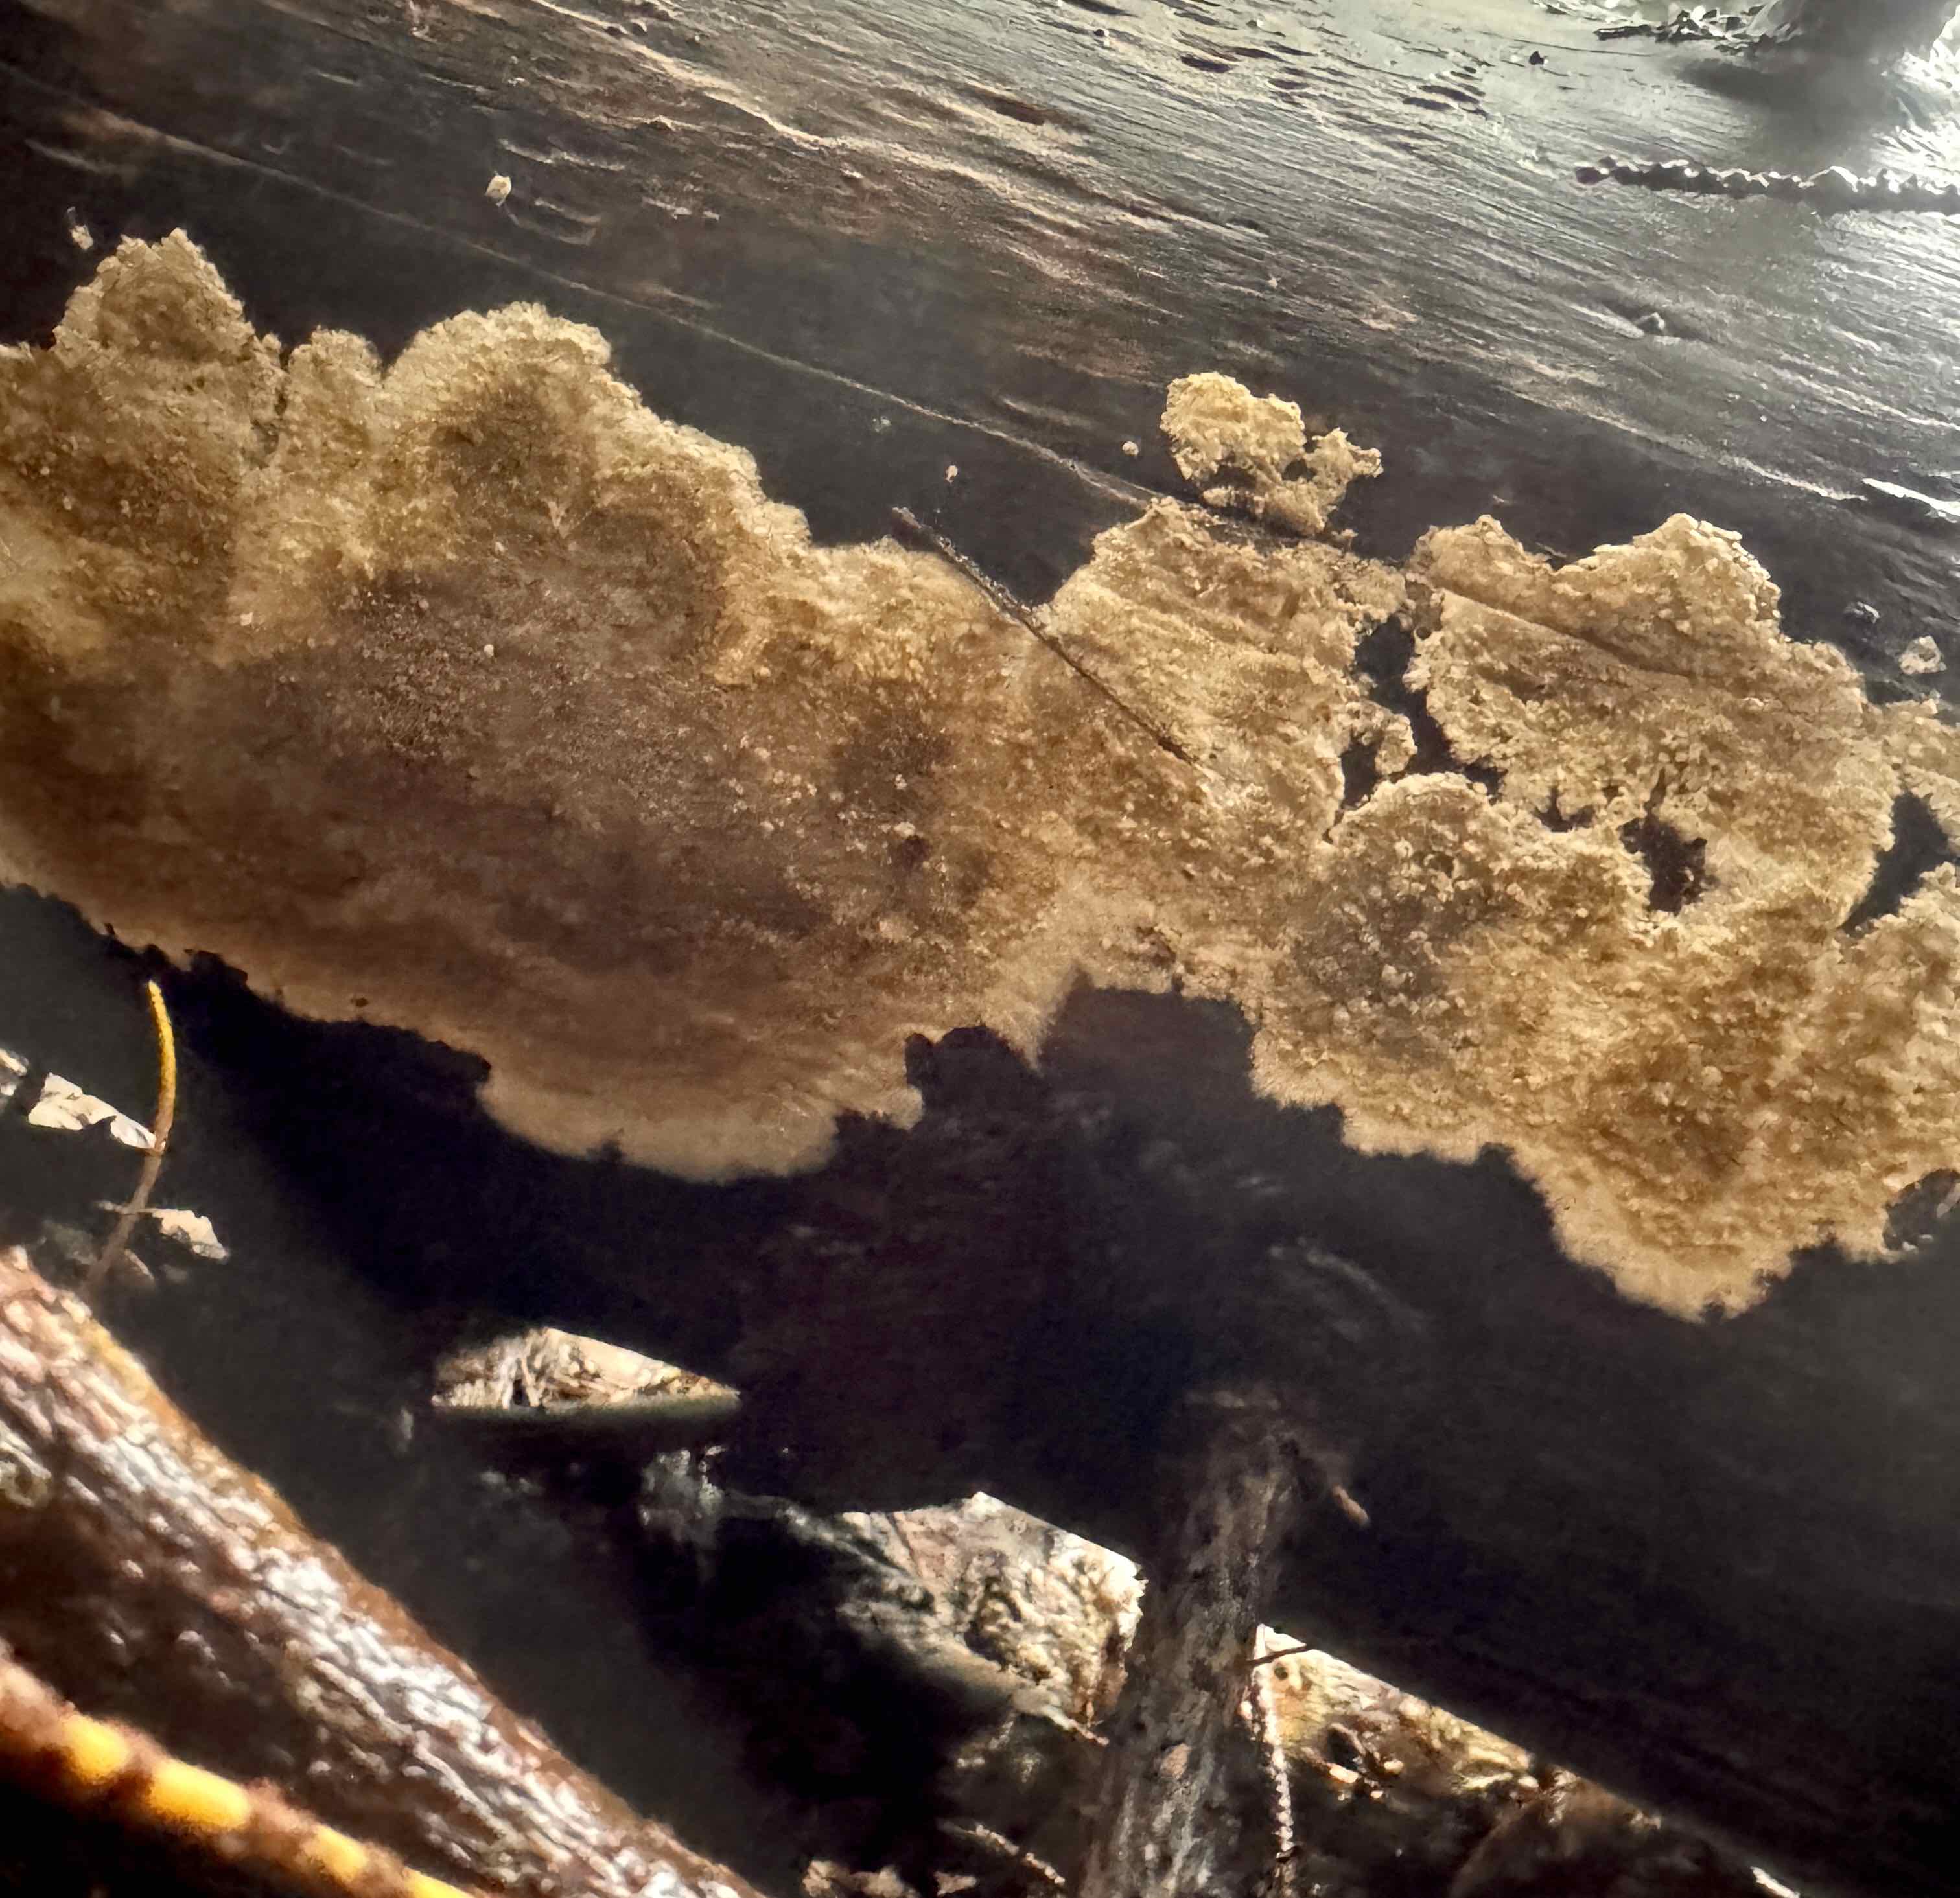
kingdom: Fungi
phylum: Basidiomycota
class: Agaricomycetes
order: Boletales
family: Coniophoraceae
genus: Coniophora
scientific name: Coniophora puteana
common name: gul tømmersvamp
